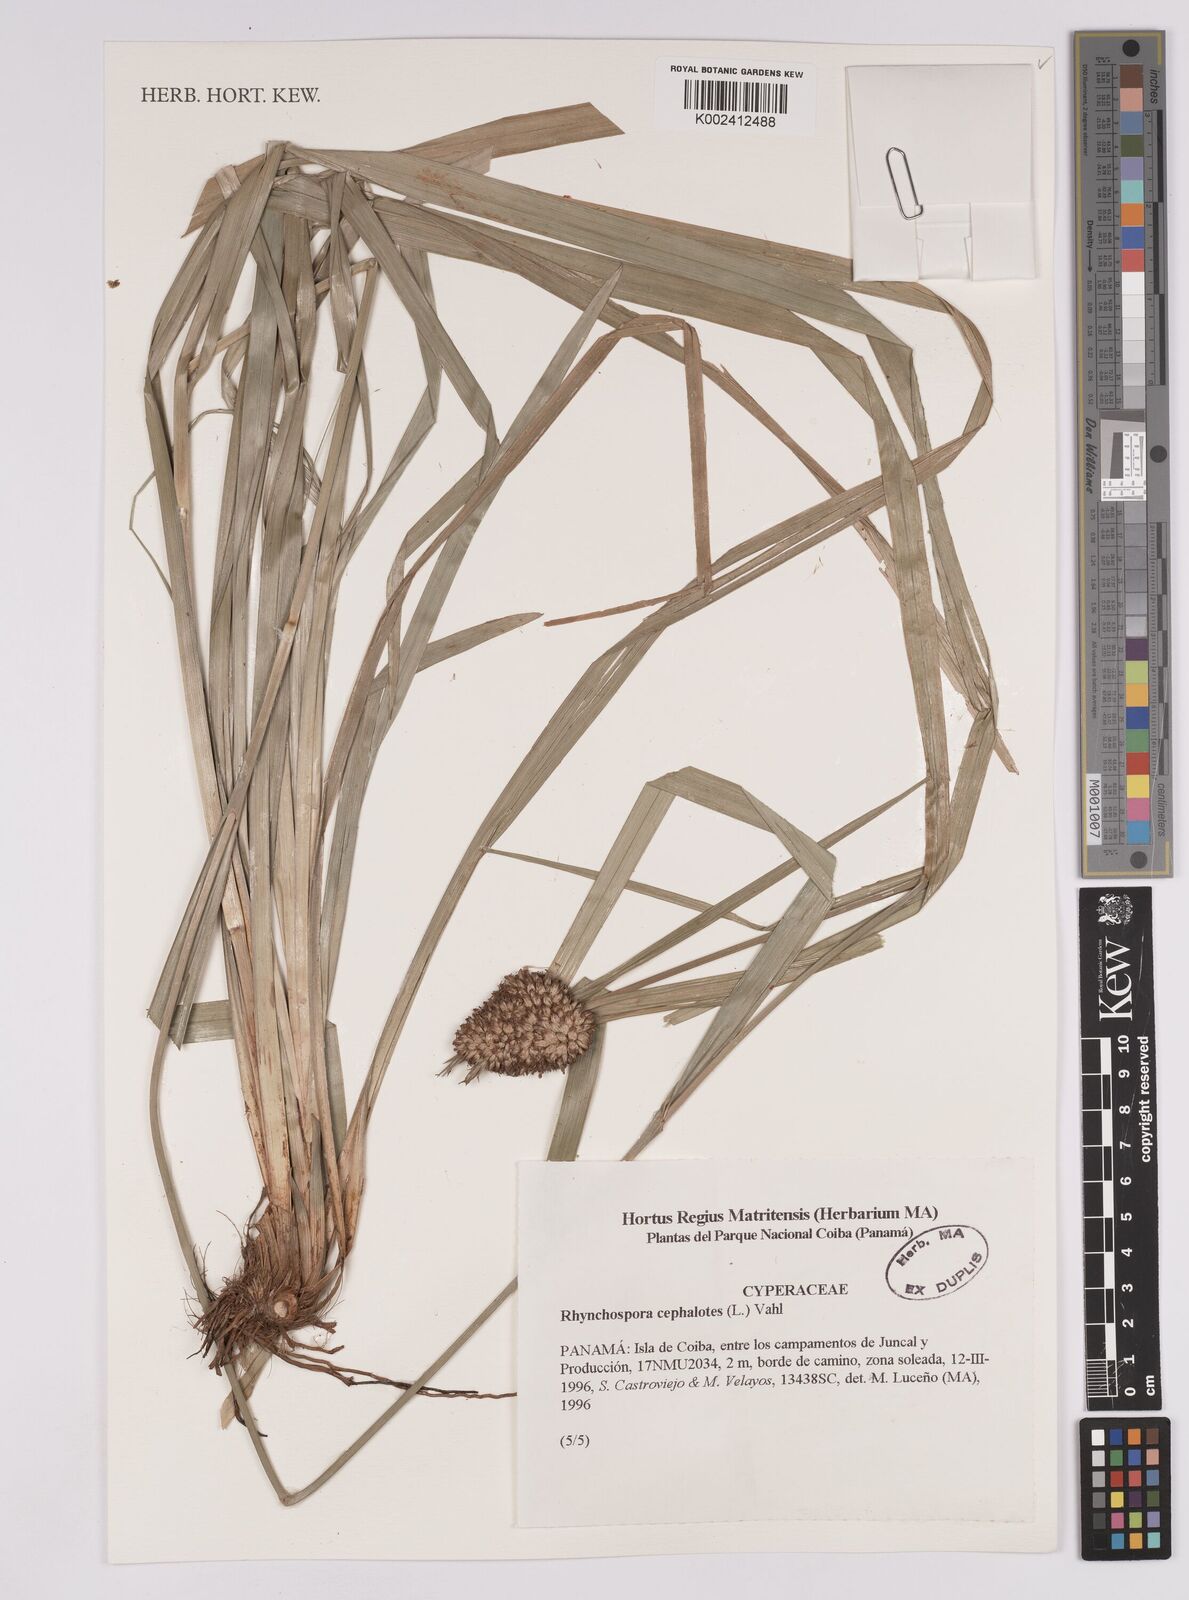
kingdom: Plantae
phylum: Tracheophyta
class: Liliopsida
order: Poales
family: Cyperaceae
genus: Rhynchospora
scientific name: Rhynchospora cephalotes
